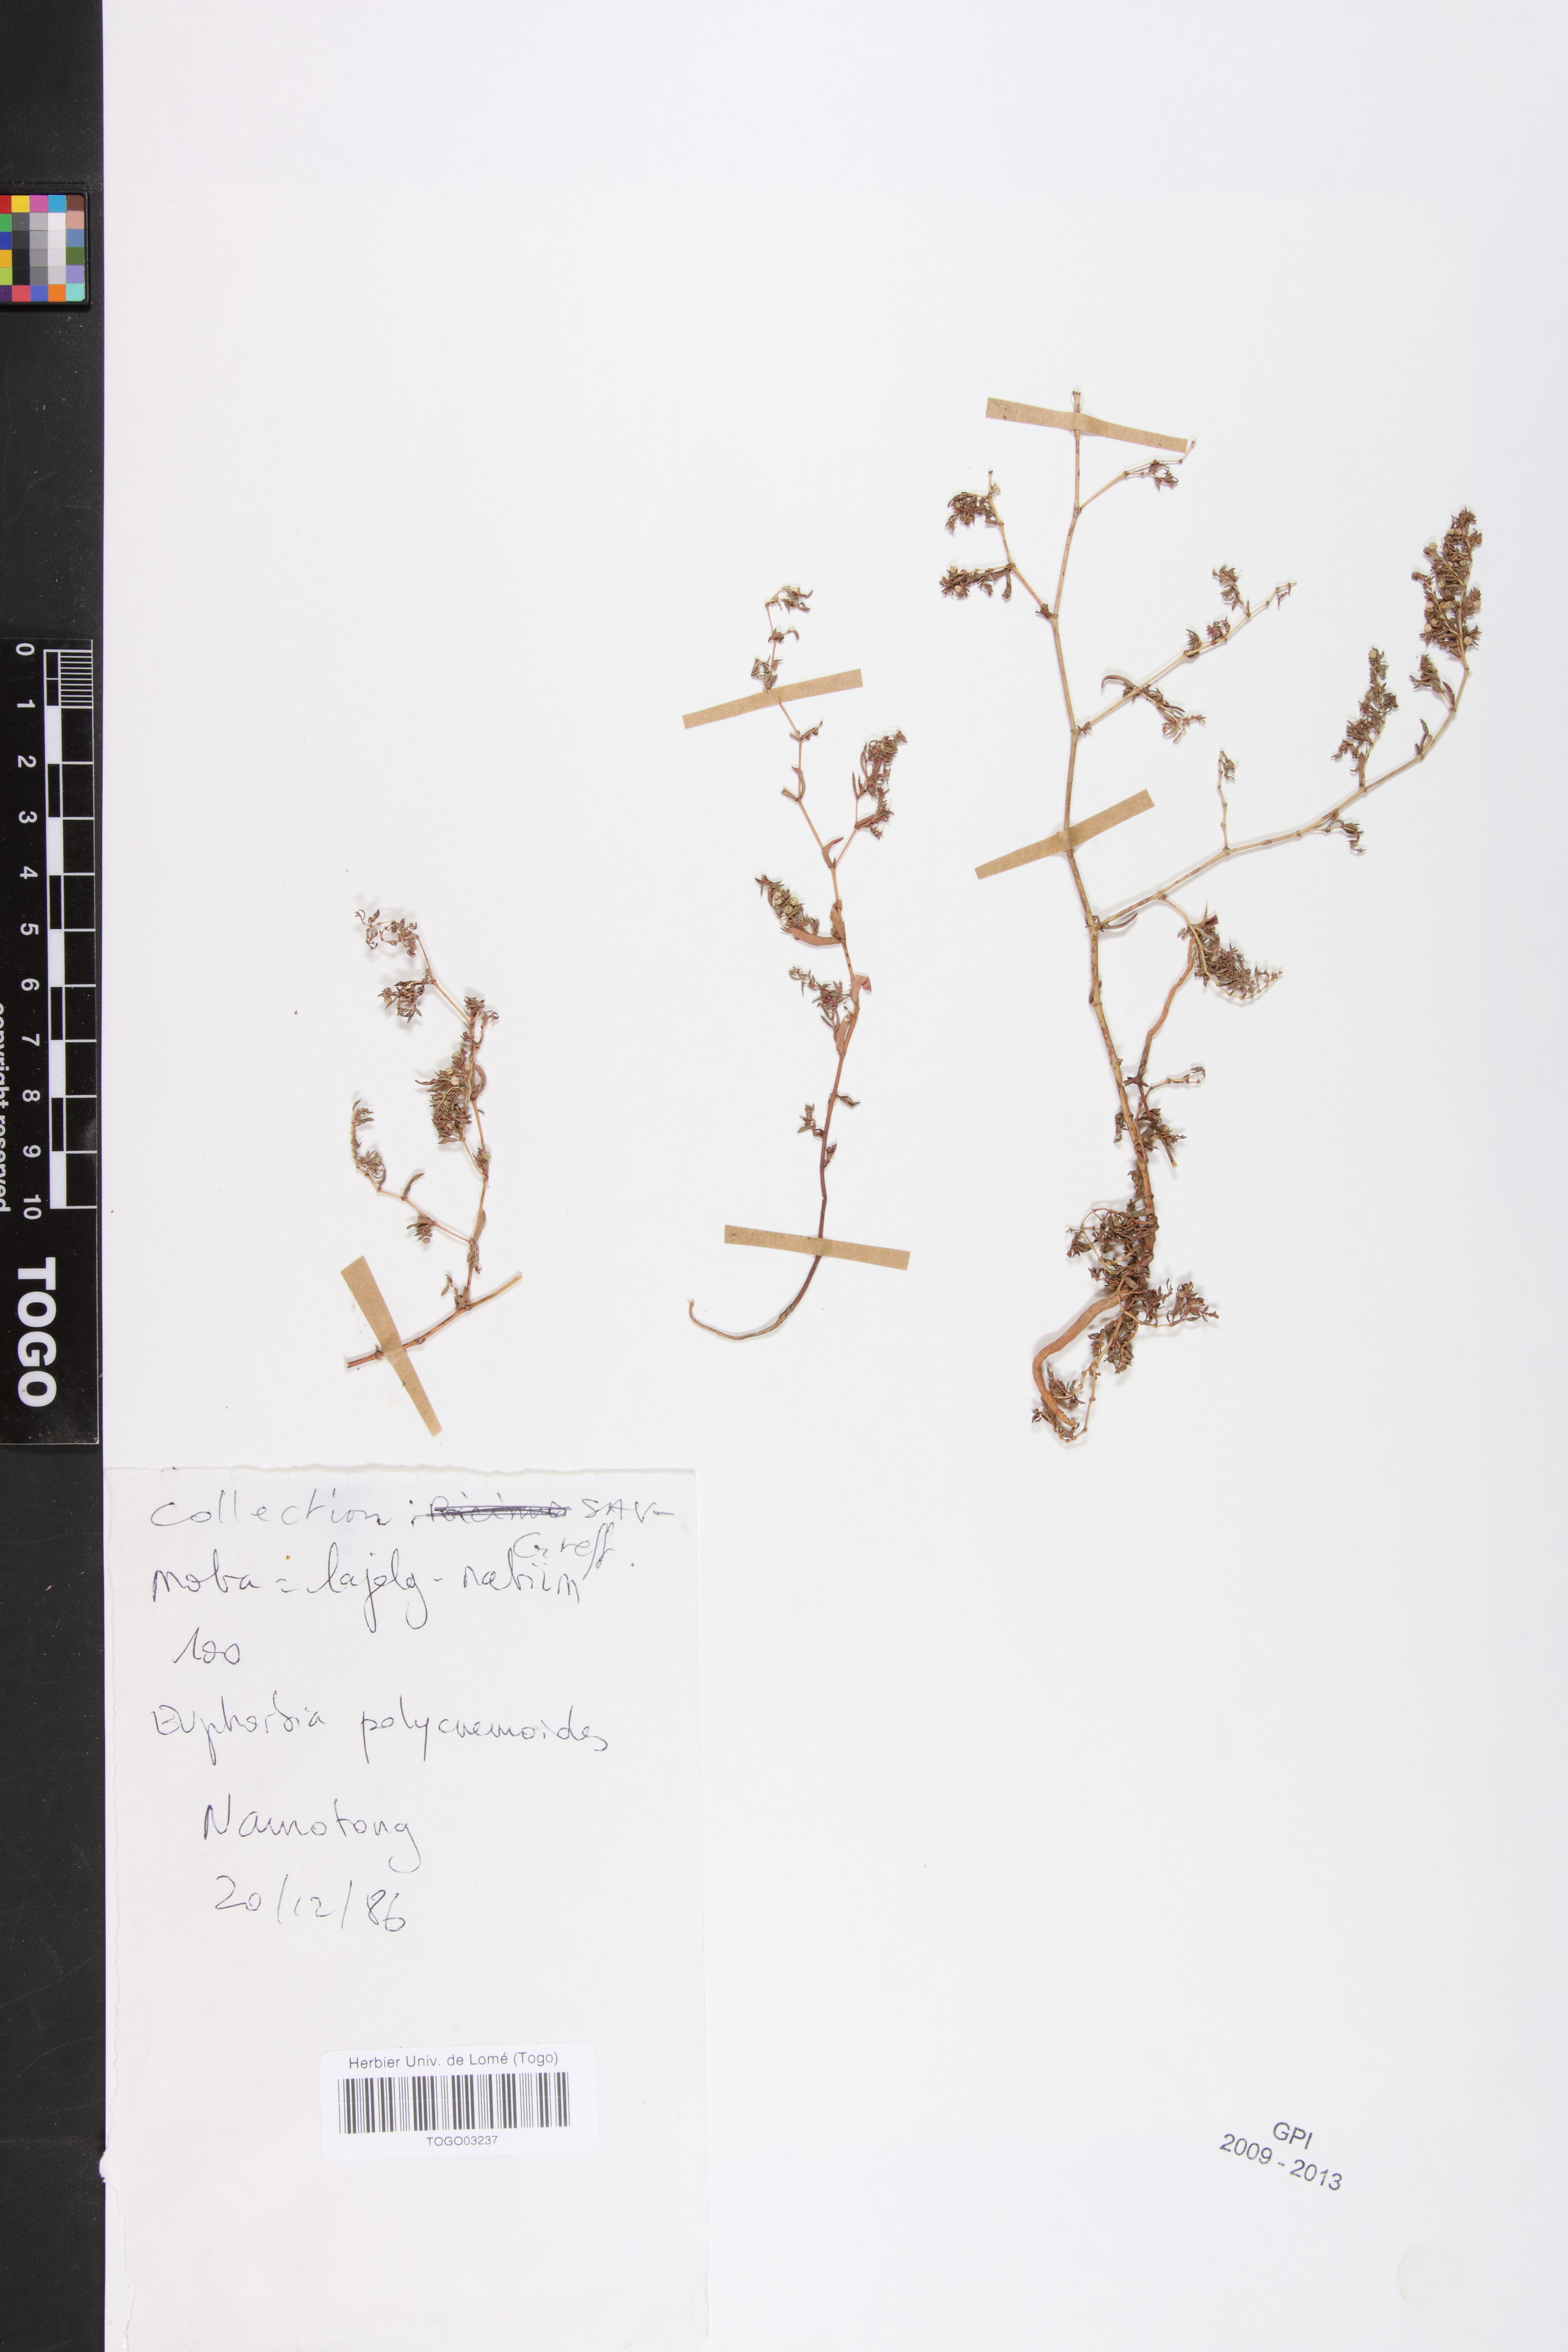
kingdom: Plantae
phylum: Tracheophyta
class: Magnoliopsida
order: Malpighiales
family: Euphorbiaceae
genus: Euphorbia
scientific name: Euphorbia polycnemoides
